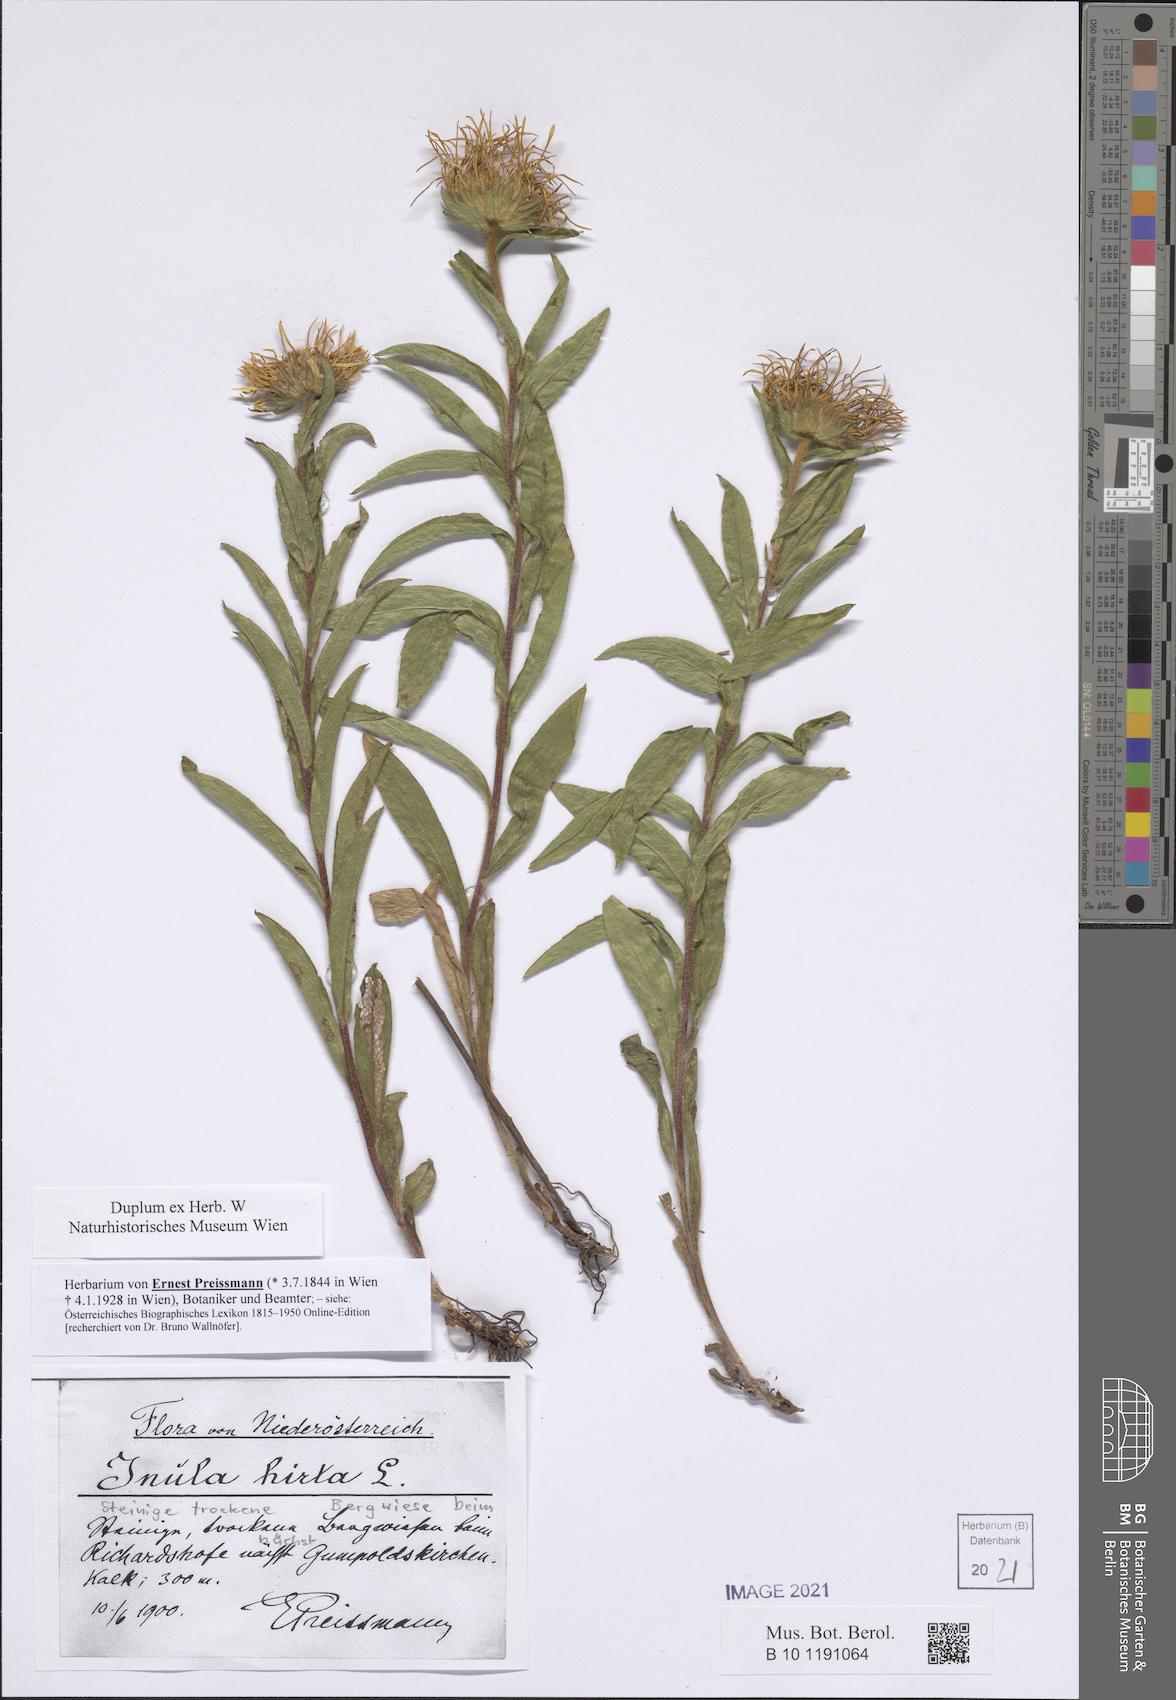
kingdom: Plantae
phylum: Tracheophyta
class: Magnoliopsida
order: Asterales
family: Asteraceae
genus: Pentanema
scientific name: Pentanema hirtum
